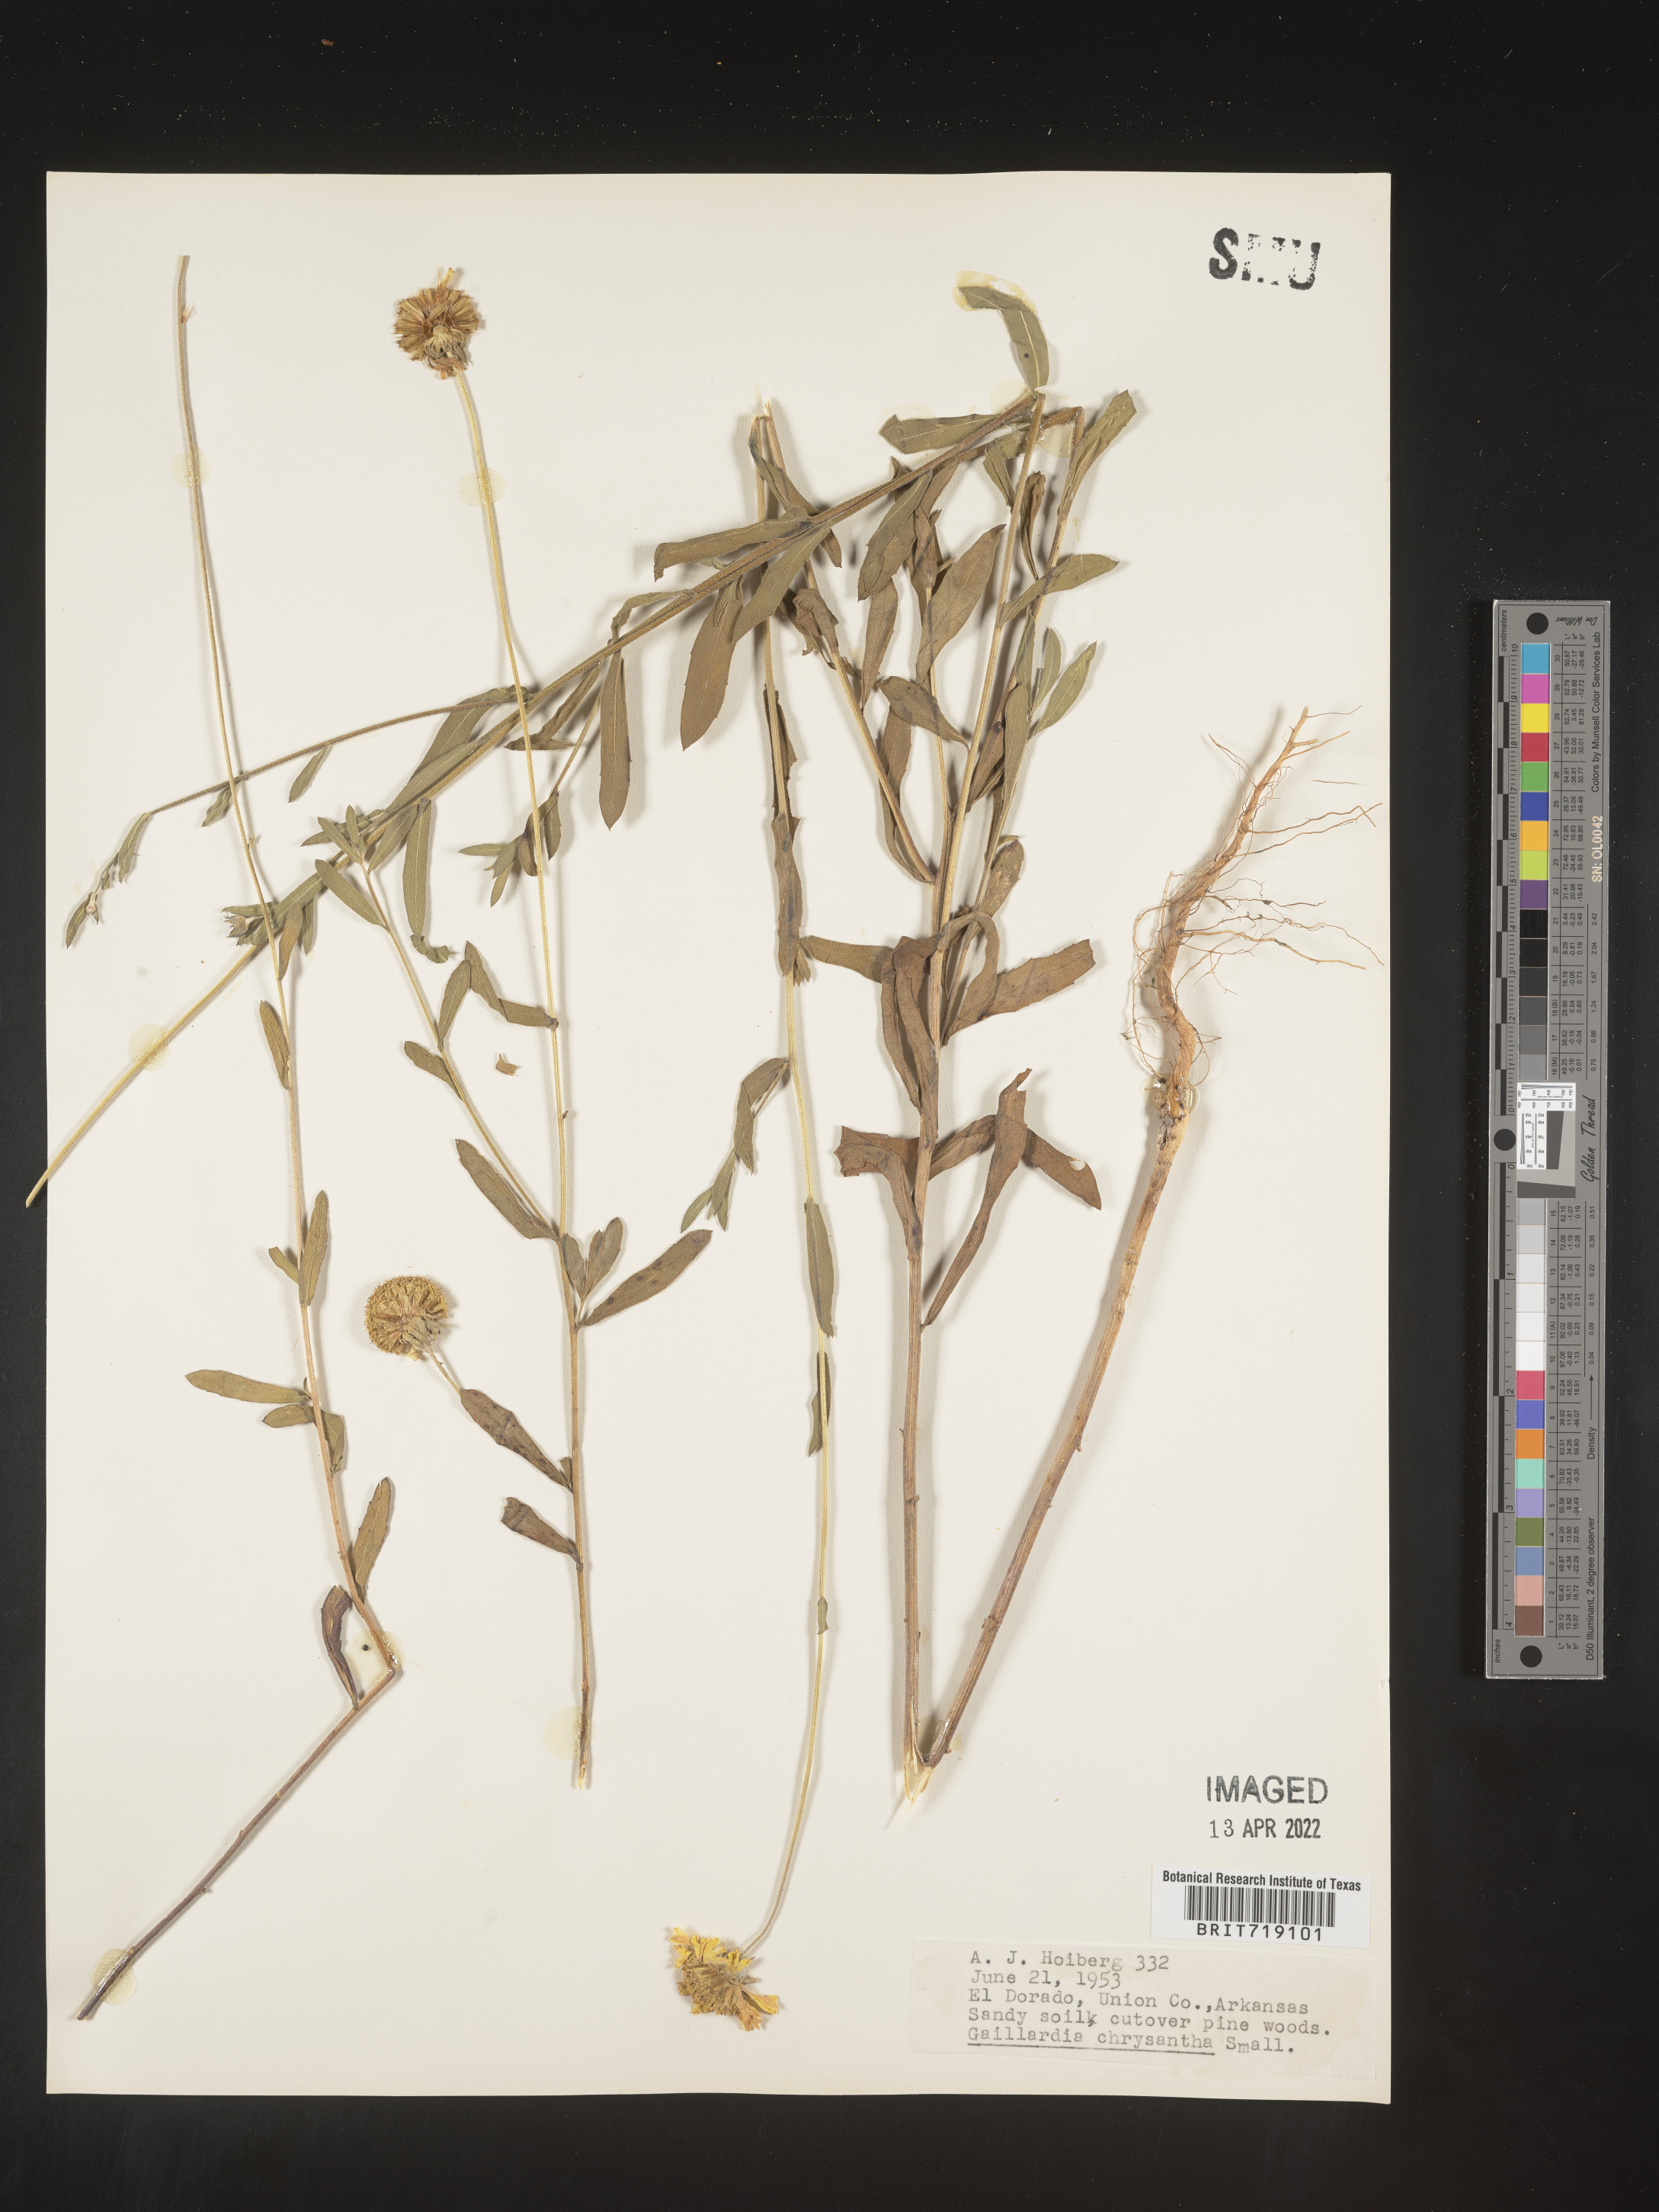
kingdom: Plantae
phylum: Tracheophyta
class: Magnoliopsida
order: Asterales
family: Asteraceae
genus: Gaillardia
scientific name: Gaillardia aestivalis
